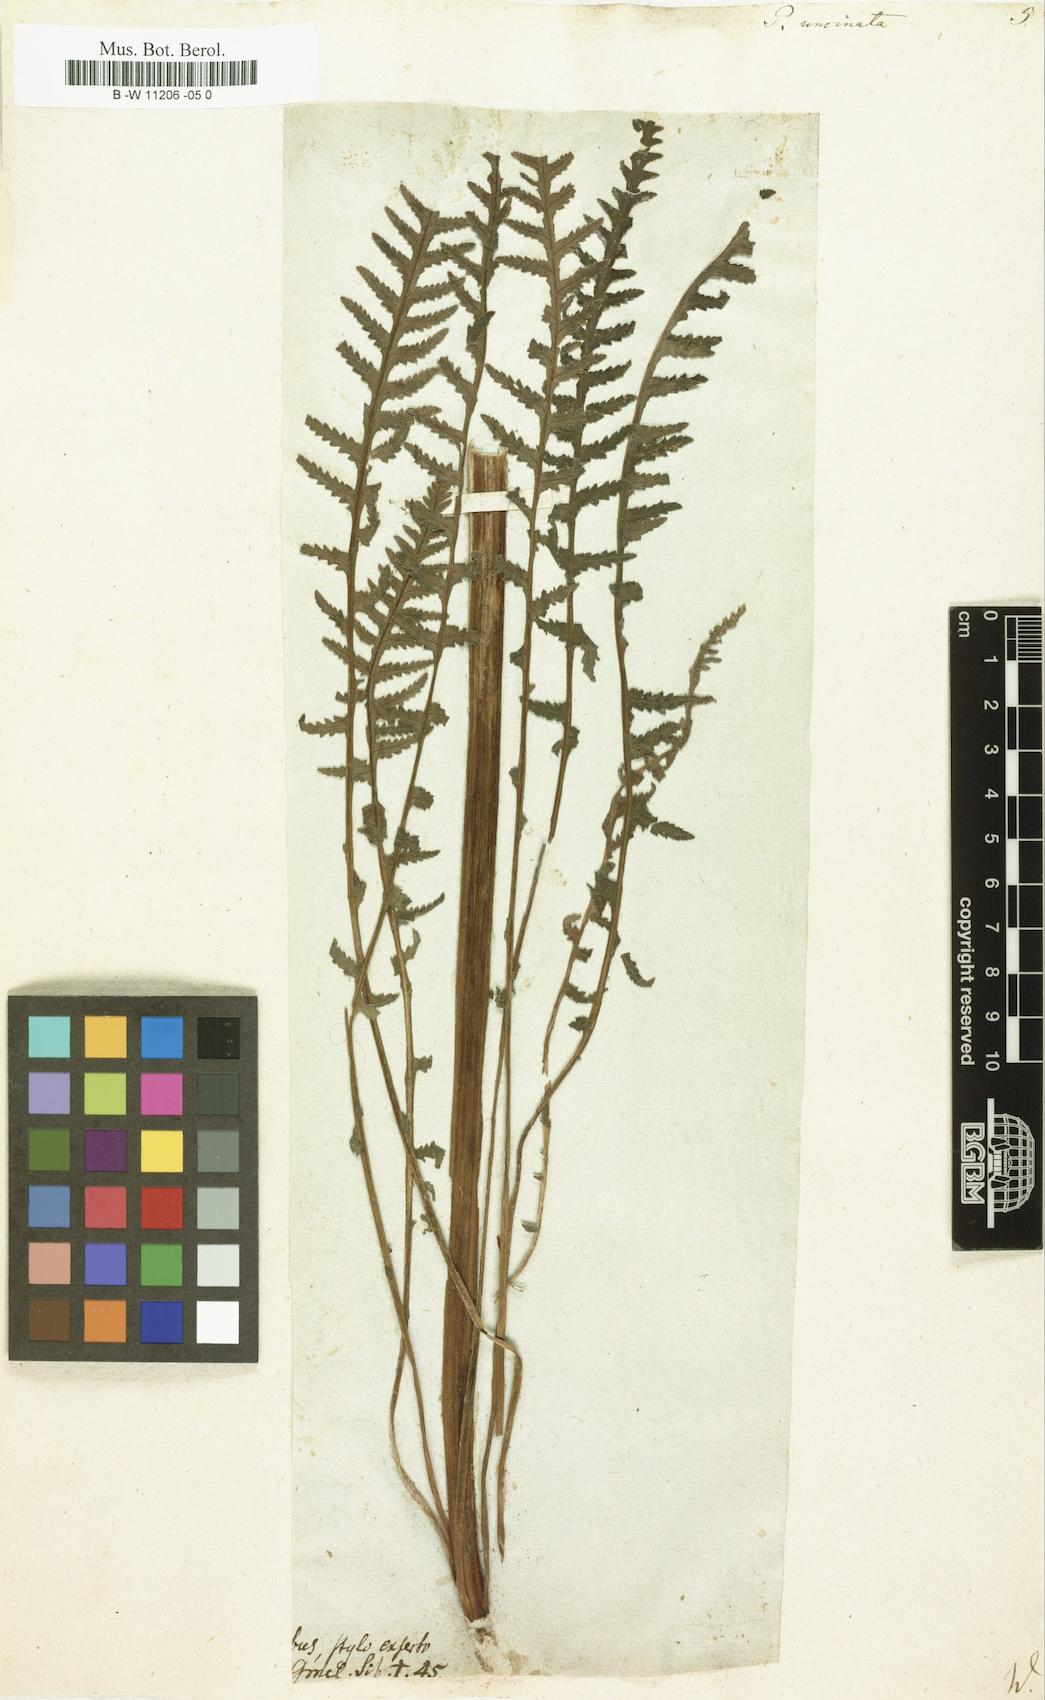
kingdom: Plantae
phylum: Tracheophyta
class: Magnoliopsida
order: Lamiales
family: Orobanchaceae
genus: Pedicularis
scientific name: Pedicularis
